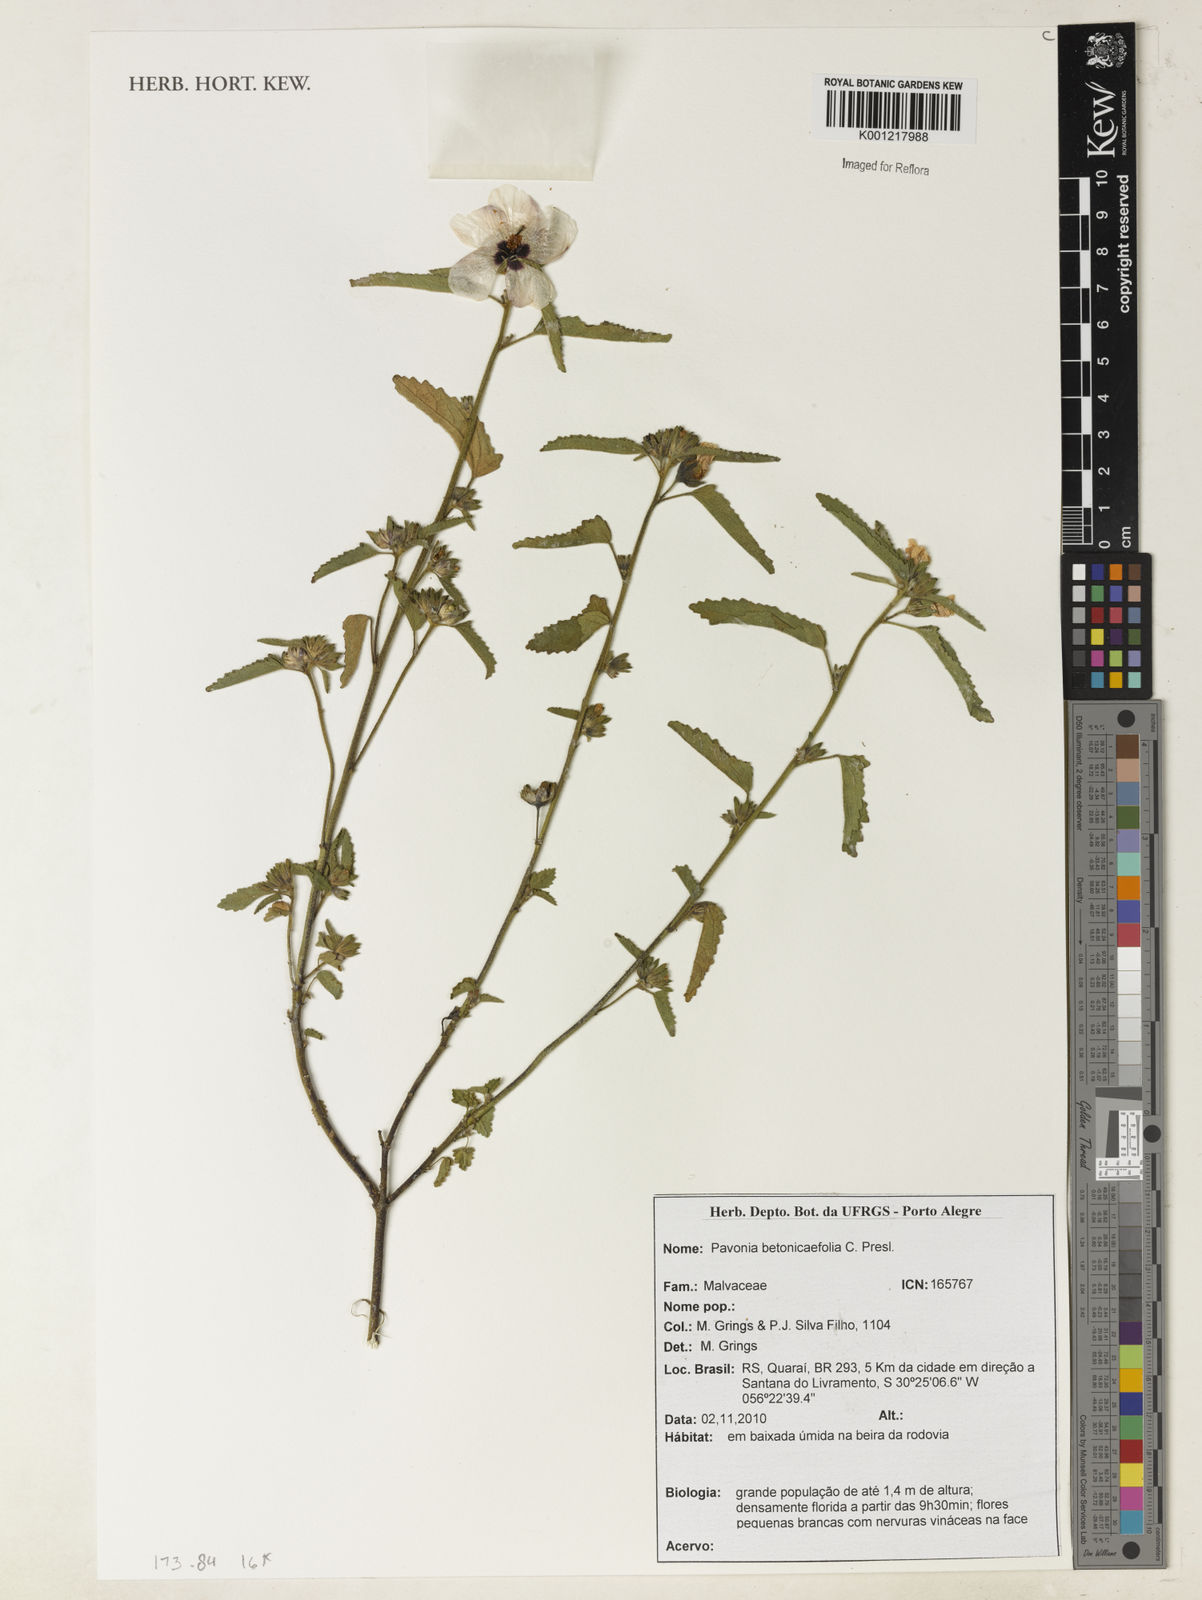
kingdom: Plantae
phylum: Tracheophyta
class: Magnoliopsida
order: Malvales
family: Malvaceae
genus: Pavonia
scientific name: Pavonia betonicifolia
